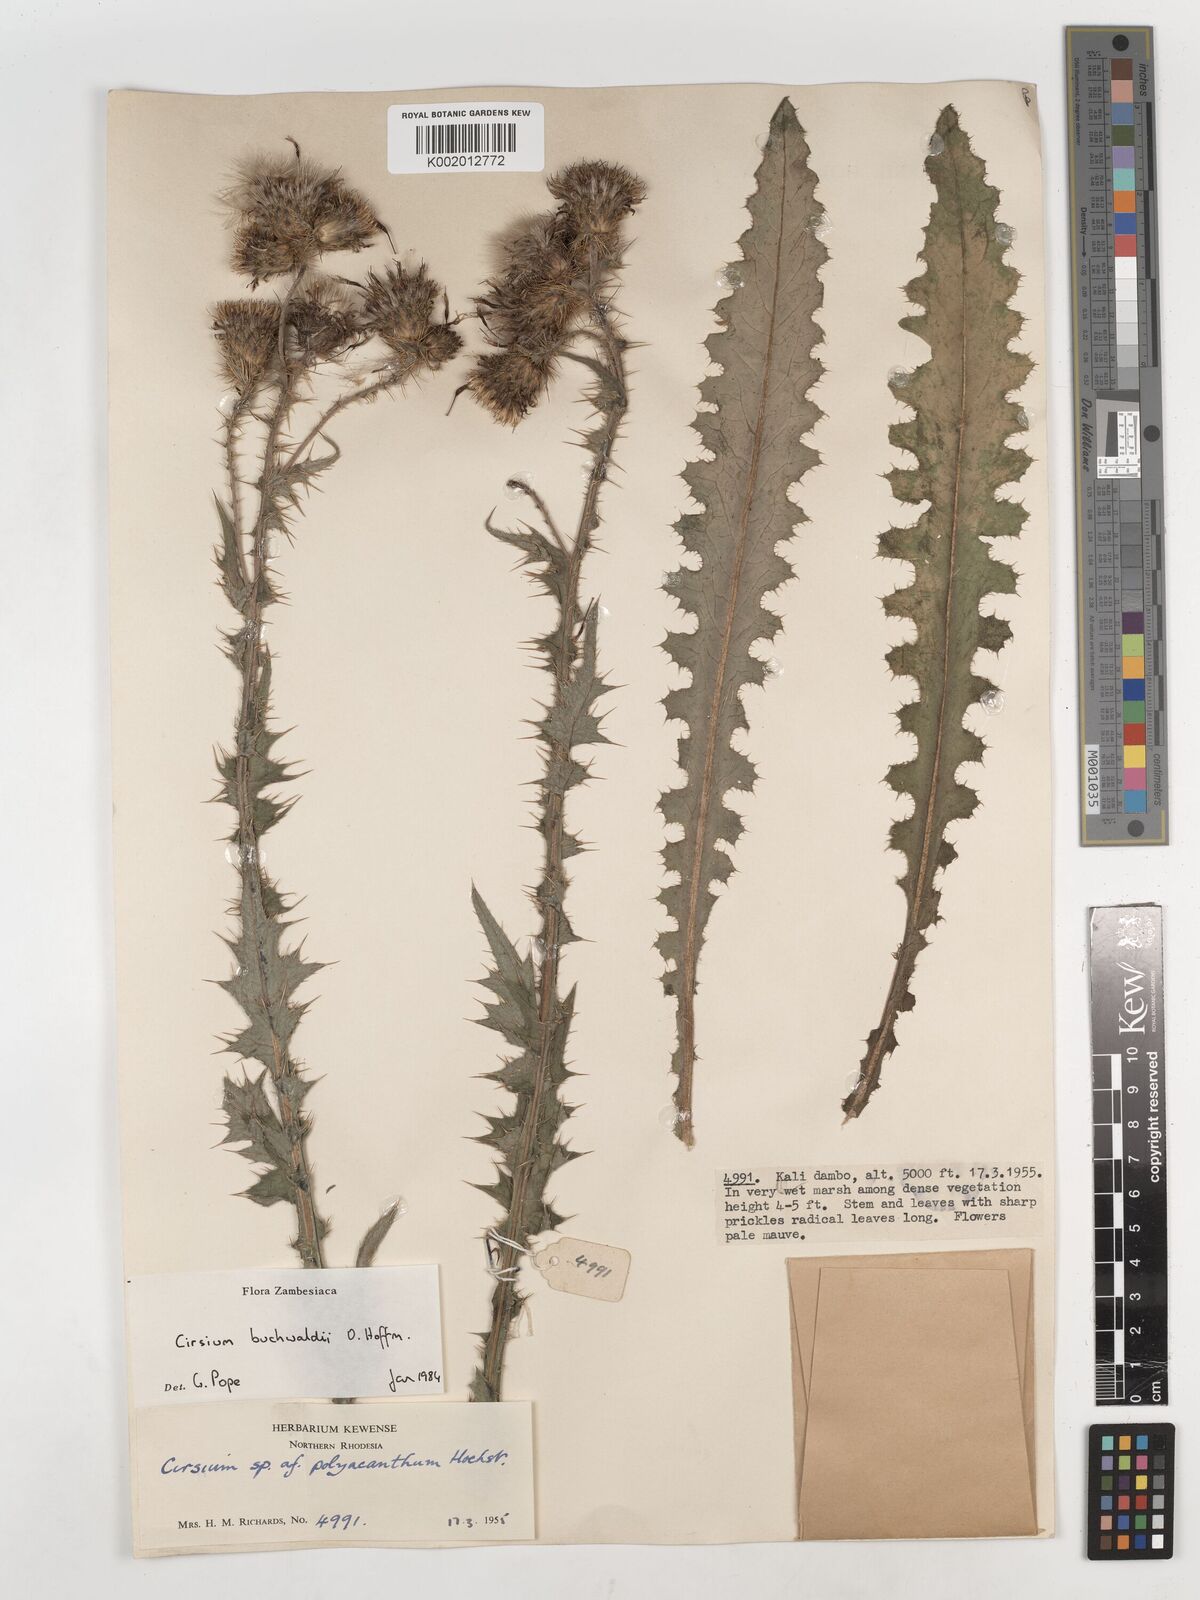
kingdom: Plantae
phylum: Tracheophyta
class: Magnoliopsida
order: Asterales
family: Asteraceae
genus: Cirsium
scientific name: Cirsium buchwaldii
